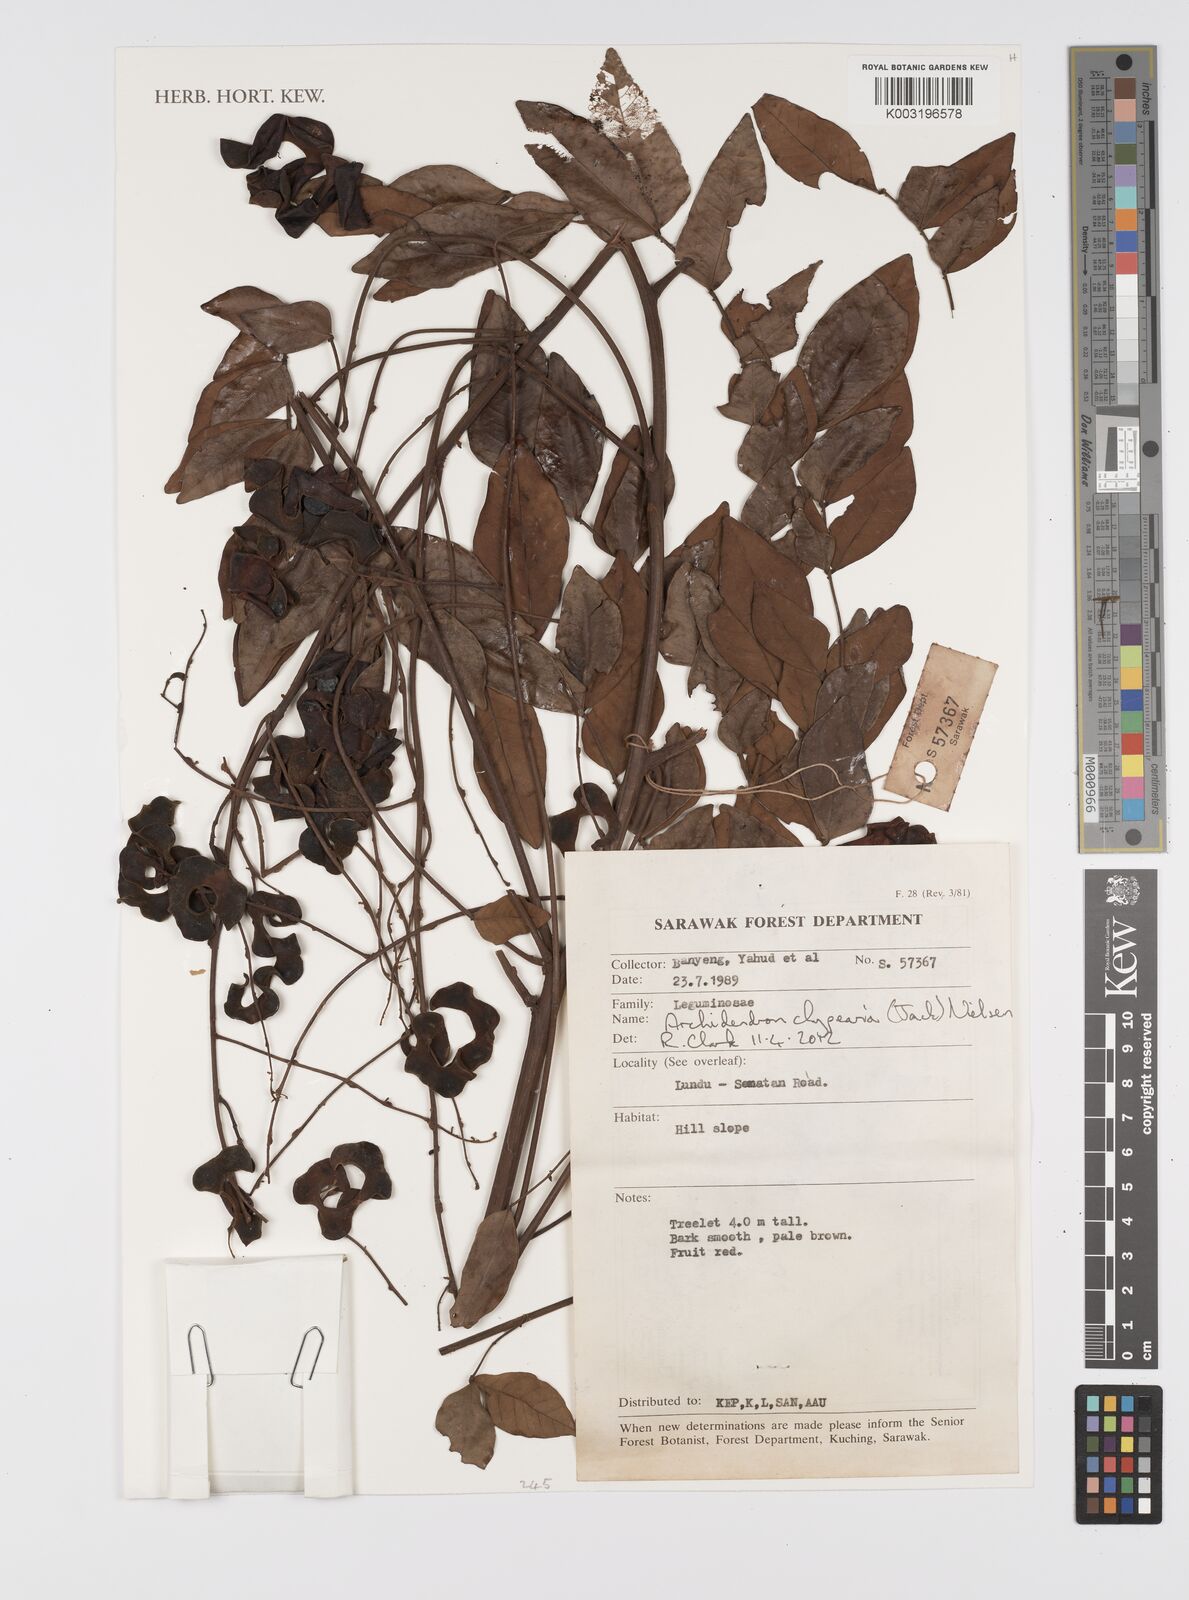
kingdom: Plantae
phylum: Tracheophyta
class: Magnoliopsida
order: Fabales
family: Fabaceae
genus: Archidendron
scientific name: Archidendron clypearia
